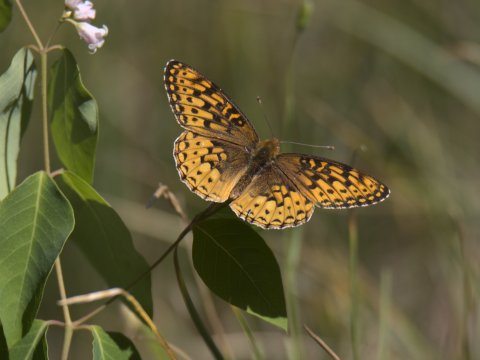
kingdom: Animalia
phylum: Arthropoda
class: Insecta
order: Lepidoptera
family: Nymphalidae
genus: Speyeria
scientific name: Speyeria
